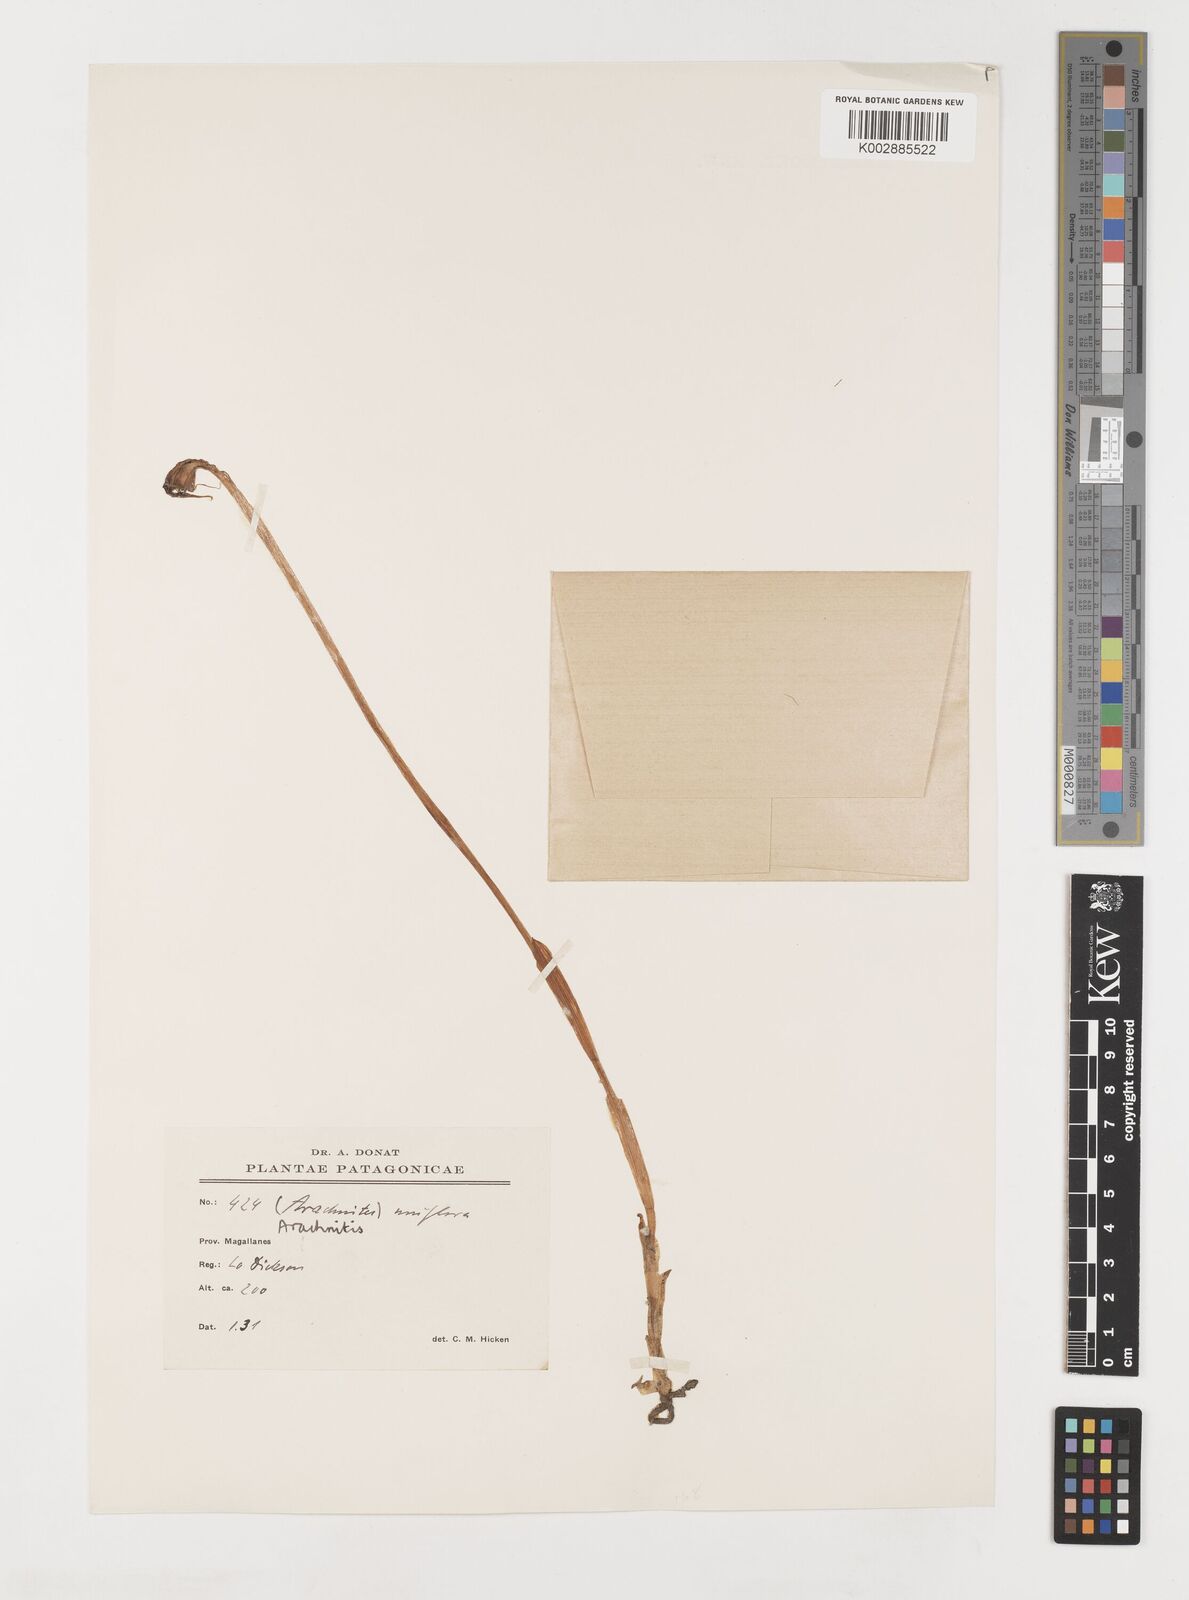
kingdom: Plantae
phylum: Tracheophyta
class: Liliopsida
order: Liliales
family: Corsiaceae
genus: Arachnitis
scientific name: Arachnitis uniflora
